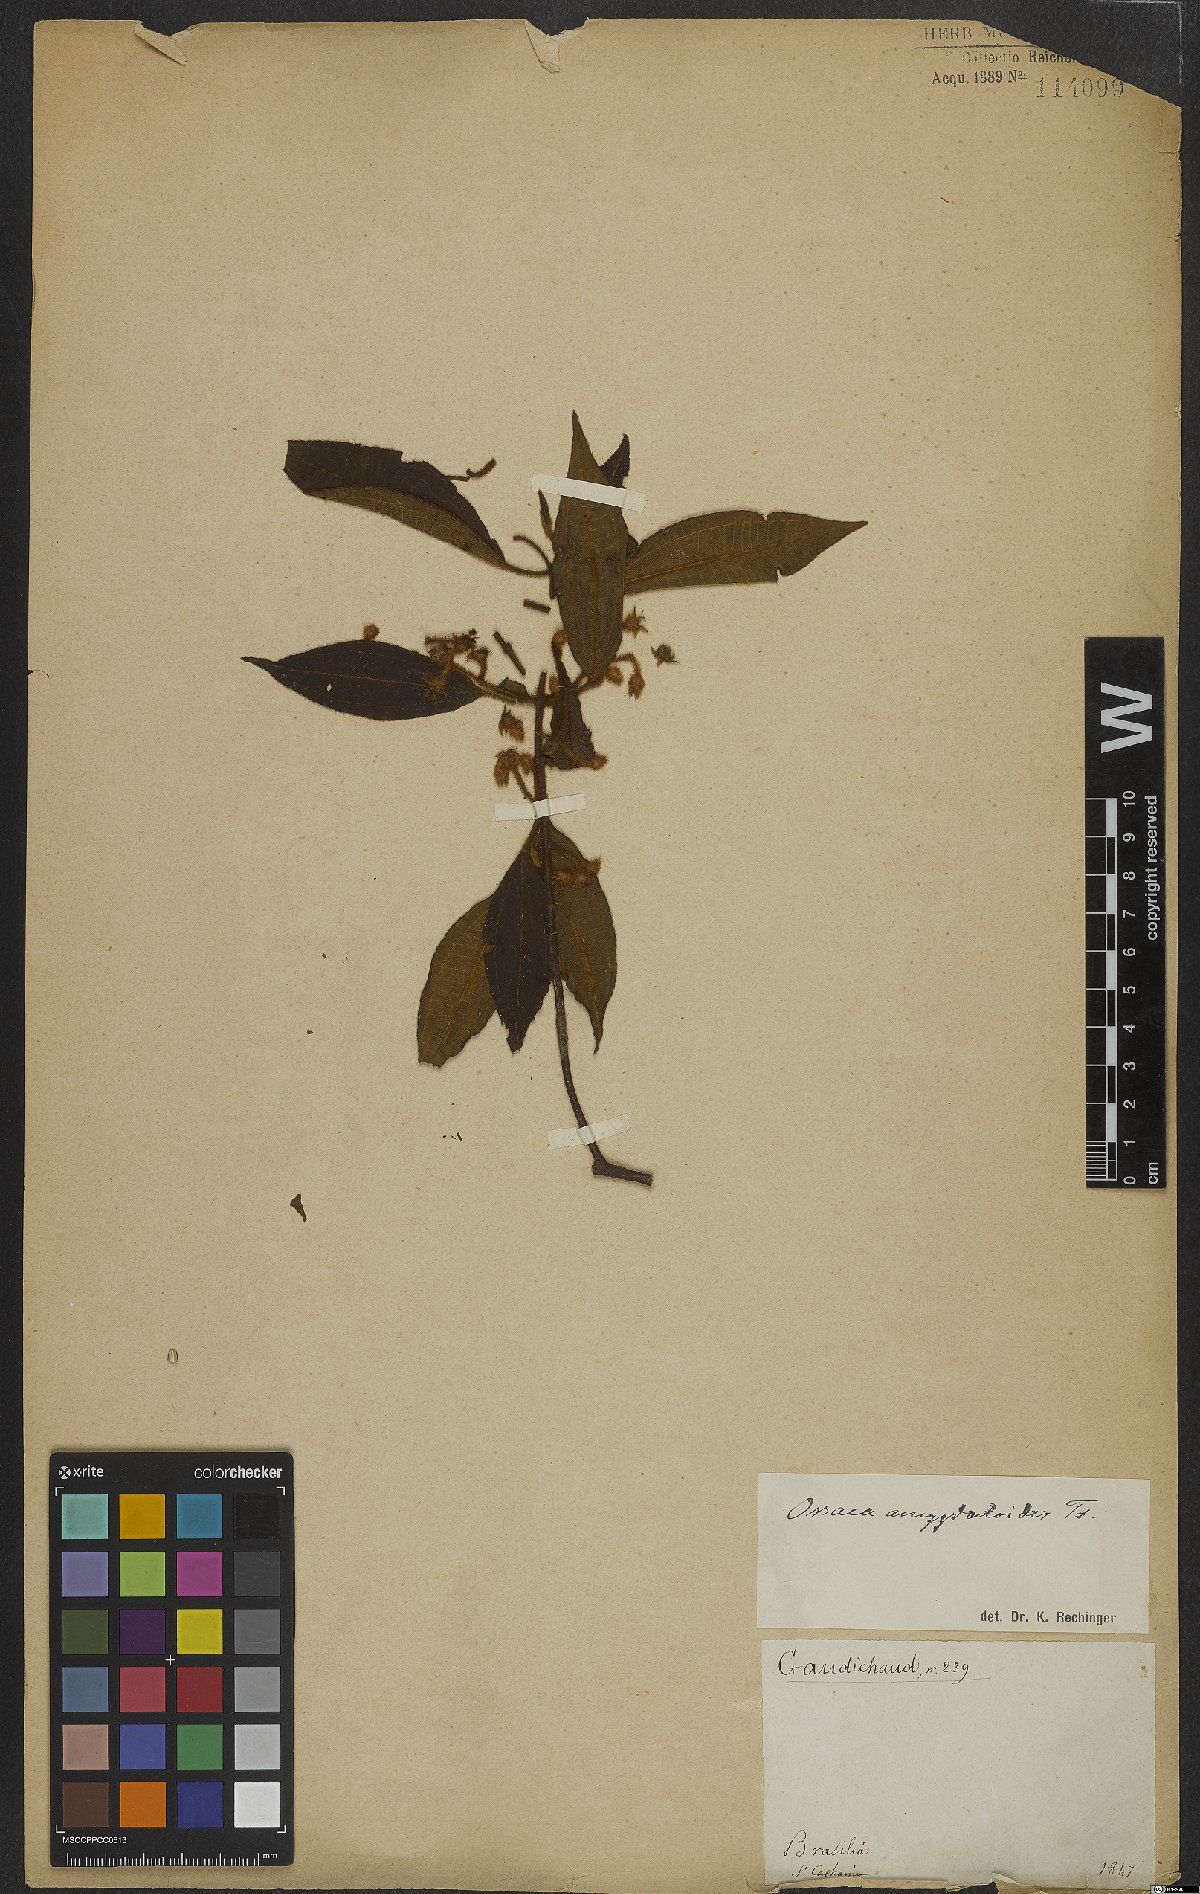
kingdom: Plantae
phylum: Tracheophyta
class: Magnoliopsida
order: Myrtales
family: Melastomataceae
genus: Miconia
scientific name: Miconia amygdaloides
